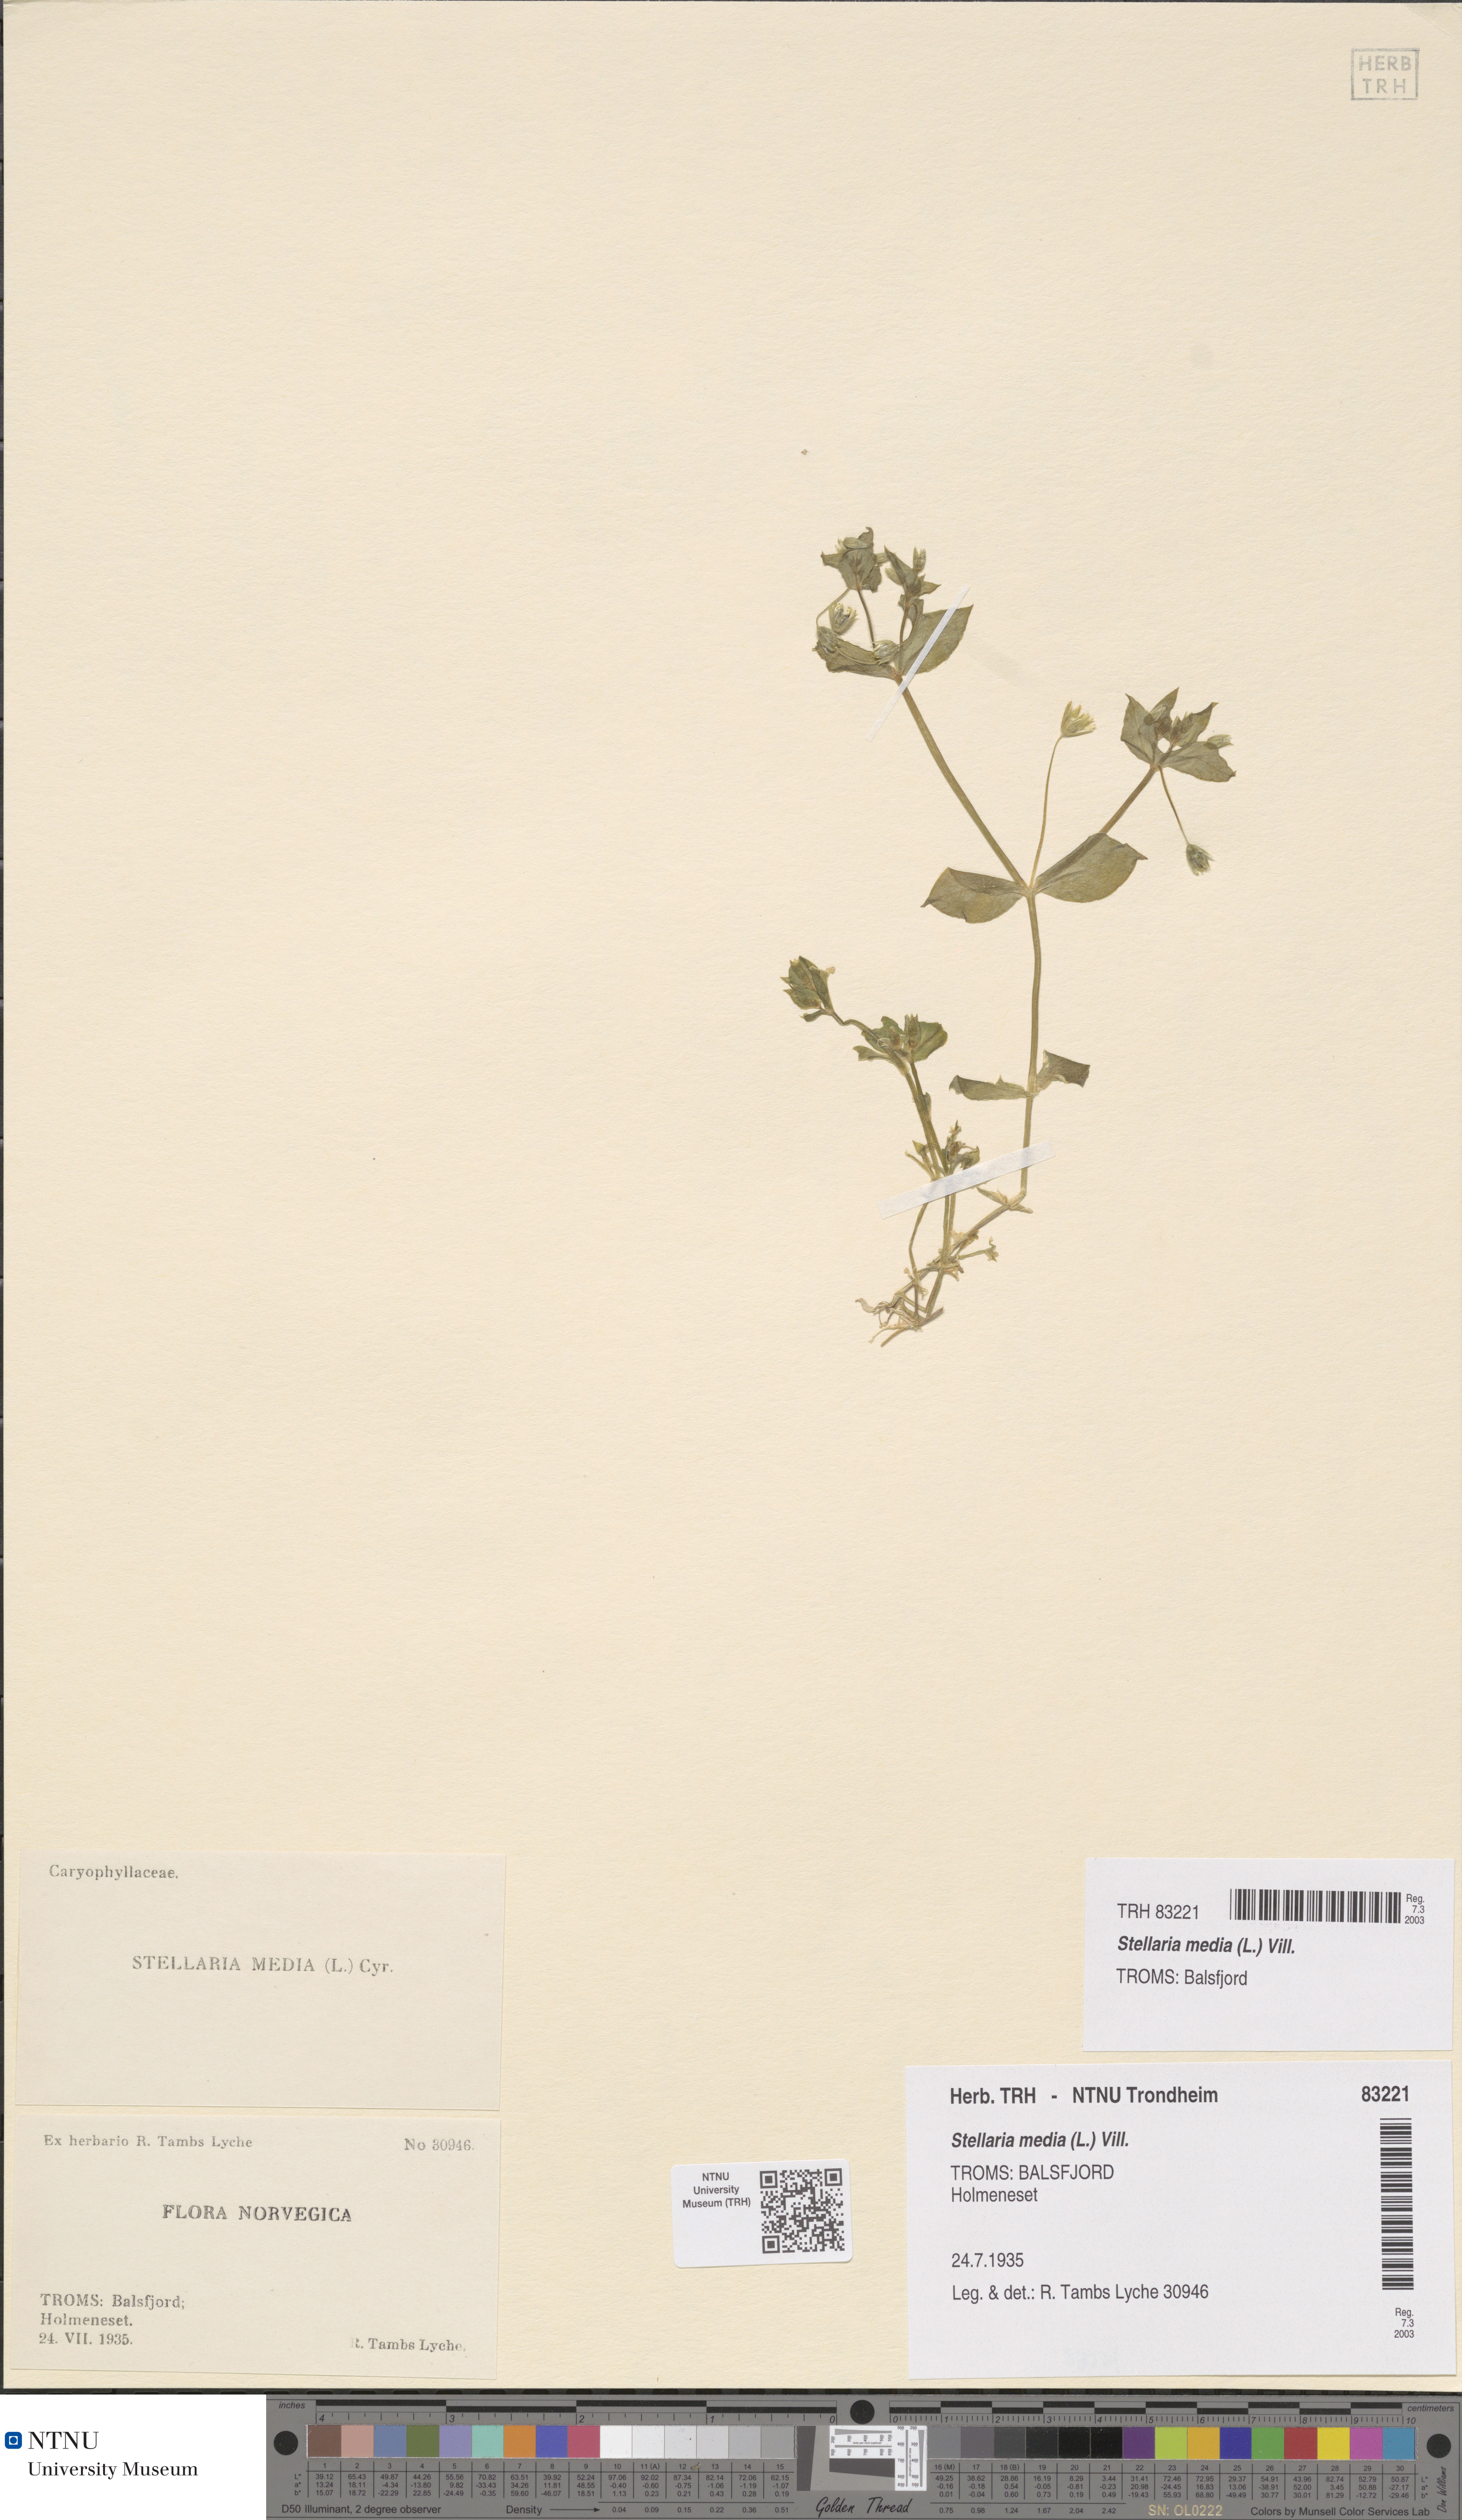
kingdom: Plantae
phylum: Tracheophyta
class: Magnoliopsida
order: Caryophyllales
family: Caryophyllaceae
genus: Stellaria
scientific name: Stellaria media
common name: Common chickweed
